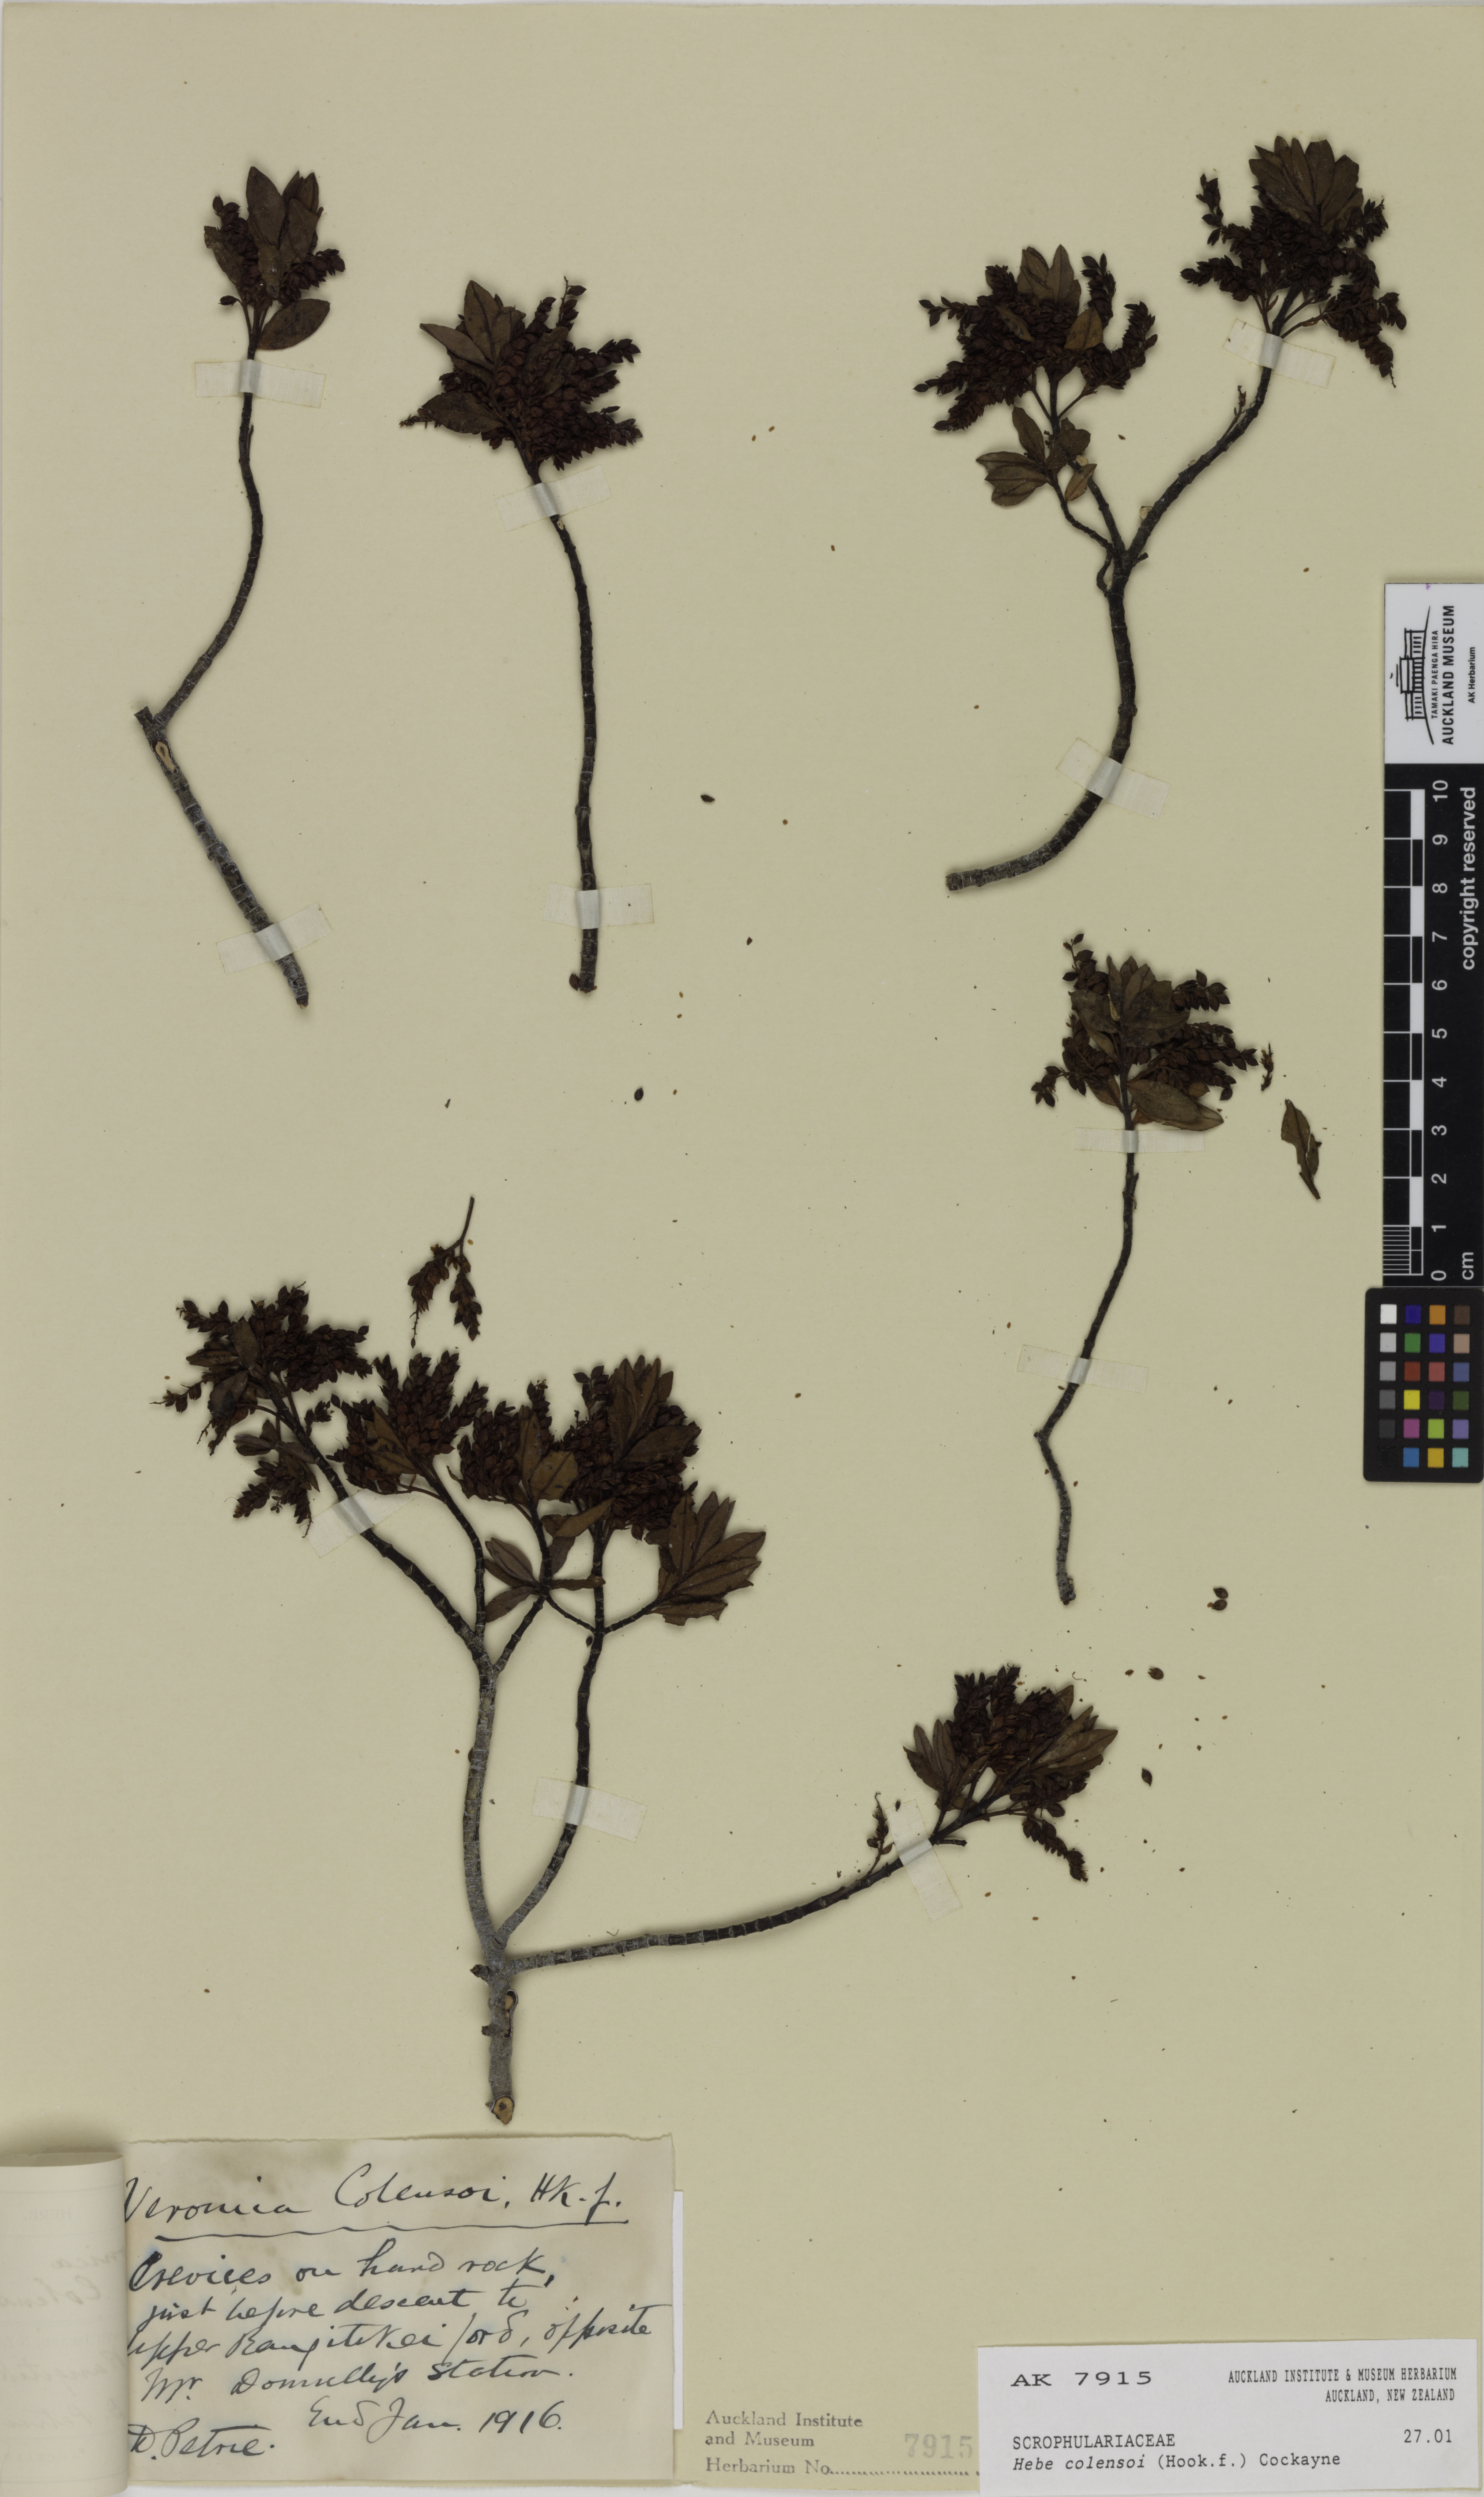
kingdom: Plantae
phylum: Tracheophyta
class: Magnoliopsida
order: Lamiales
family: Plantaginaceae
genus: Veronica
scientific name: Veronica Hebe colensoi
